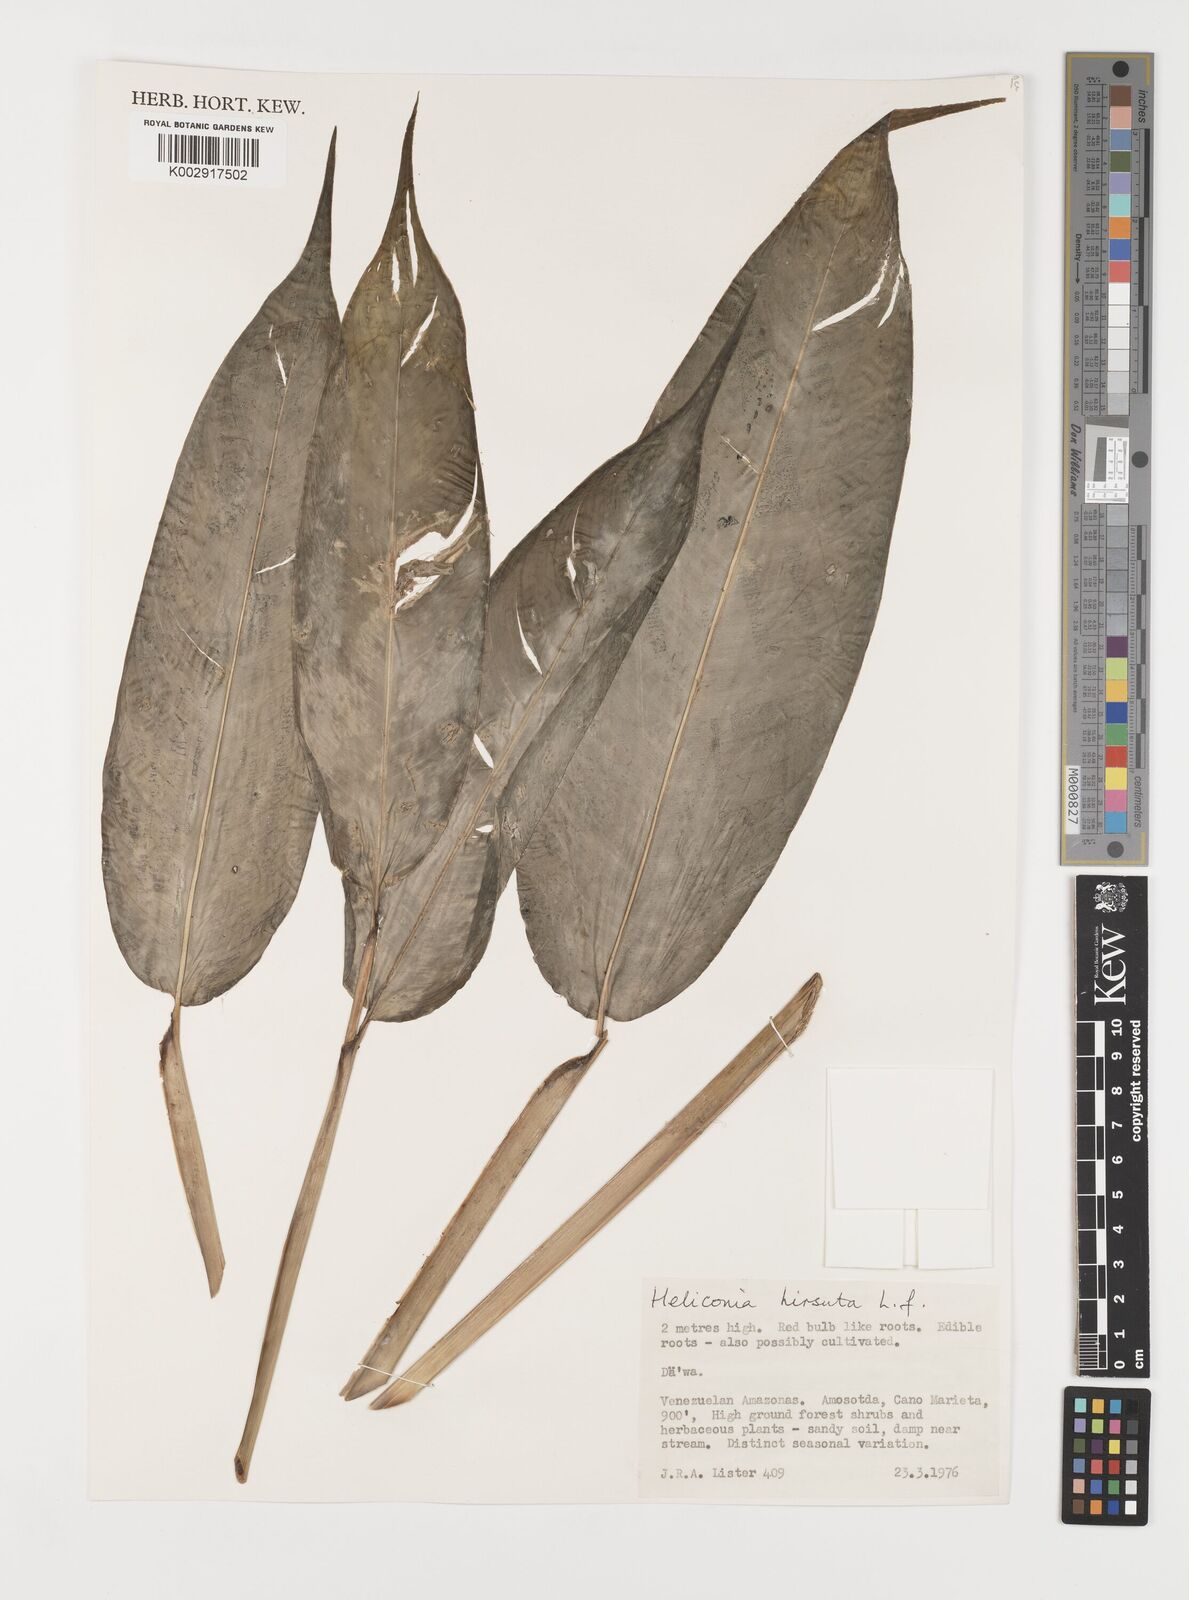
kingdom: Plantae
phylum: Tracheophyta
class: Liliopsida
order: Zingiberales
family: Heliconiaceae
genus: Heliconia
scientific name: Heliconia hirsuta
